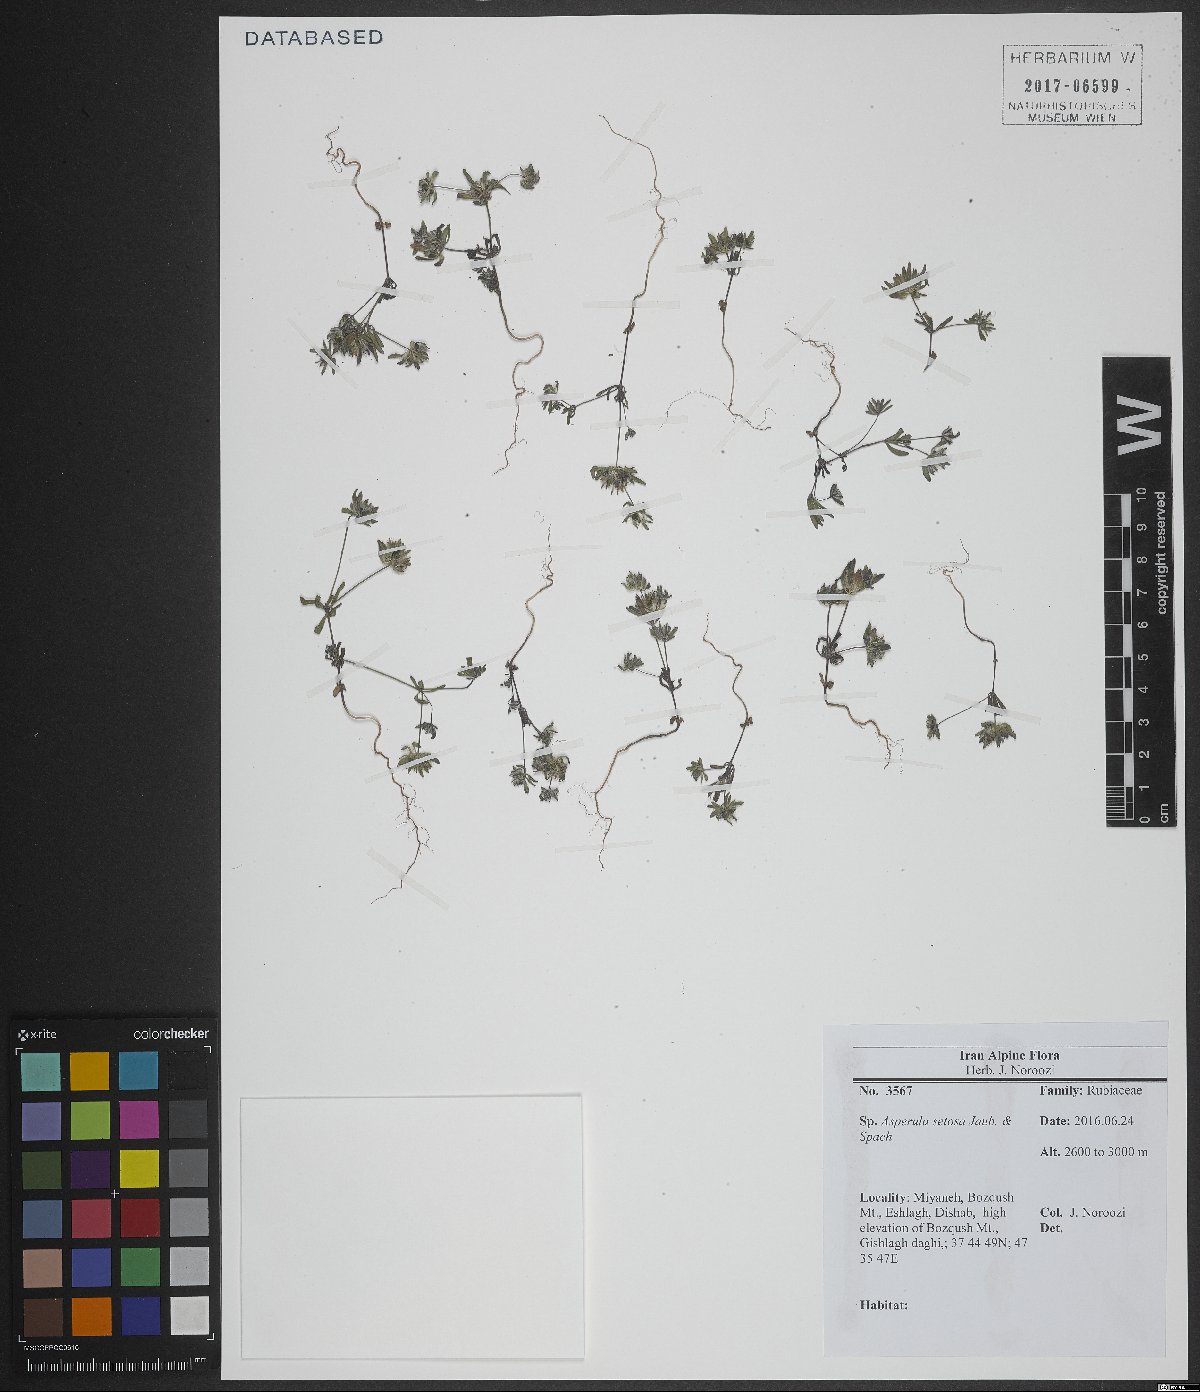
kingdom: Plantae
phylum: Tracheophyta
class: Magnoliopsida
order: Gentianales
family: Rubiaceae
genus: Asperula
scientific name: Asperula setosa
